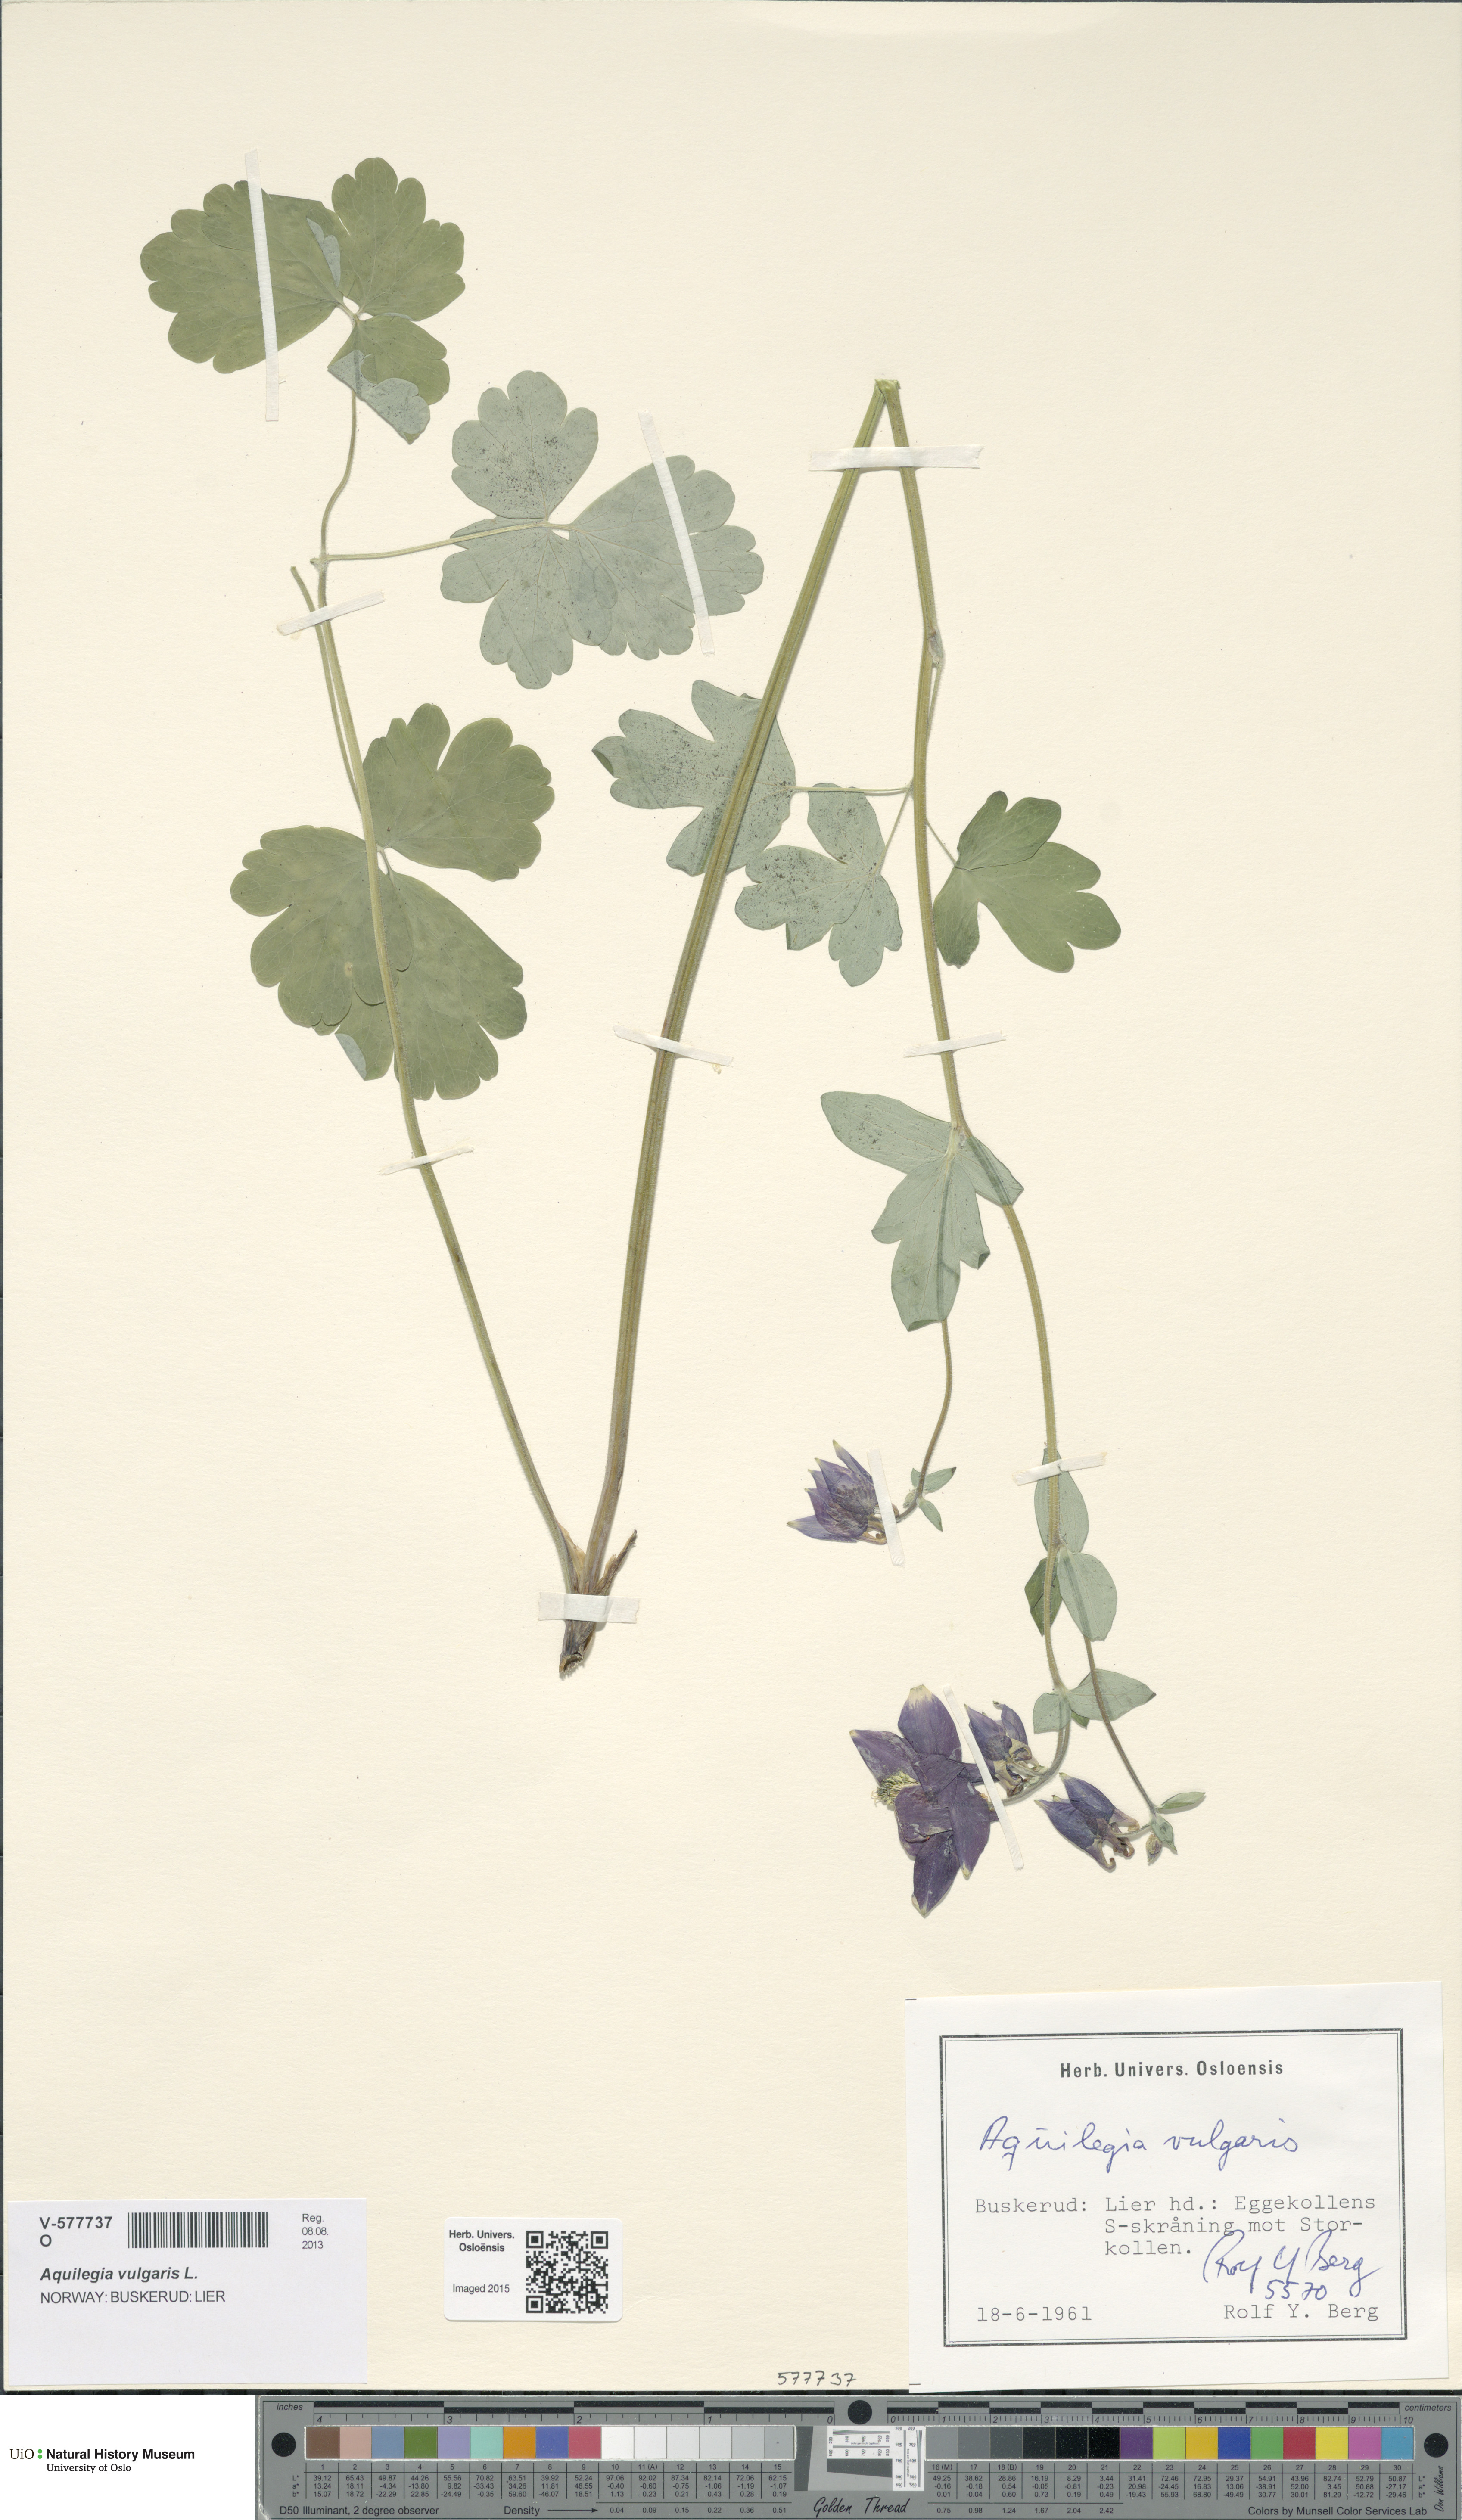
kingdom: Plantae
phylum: Tracheophyta
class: Magnoliopsida
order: Ranunculales
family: Ranunculaceae
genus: Aquilegia
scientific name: Aquilegia vulgaris
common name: Columbine
